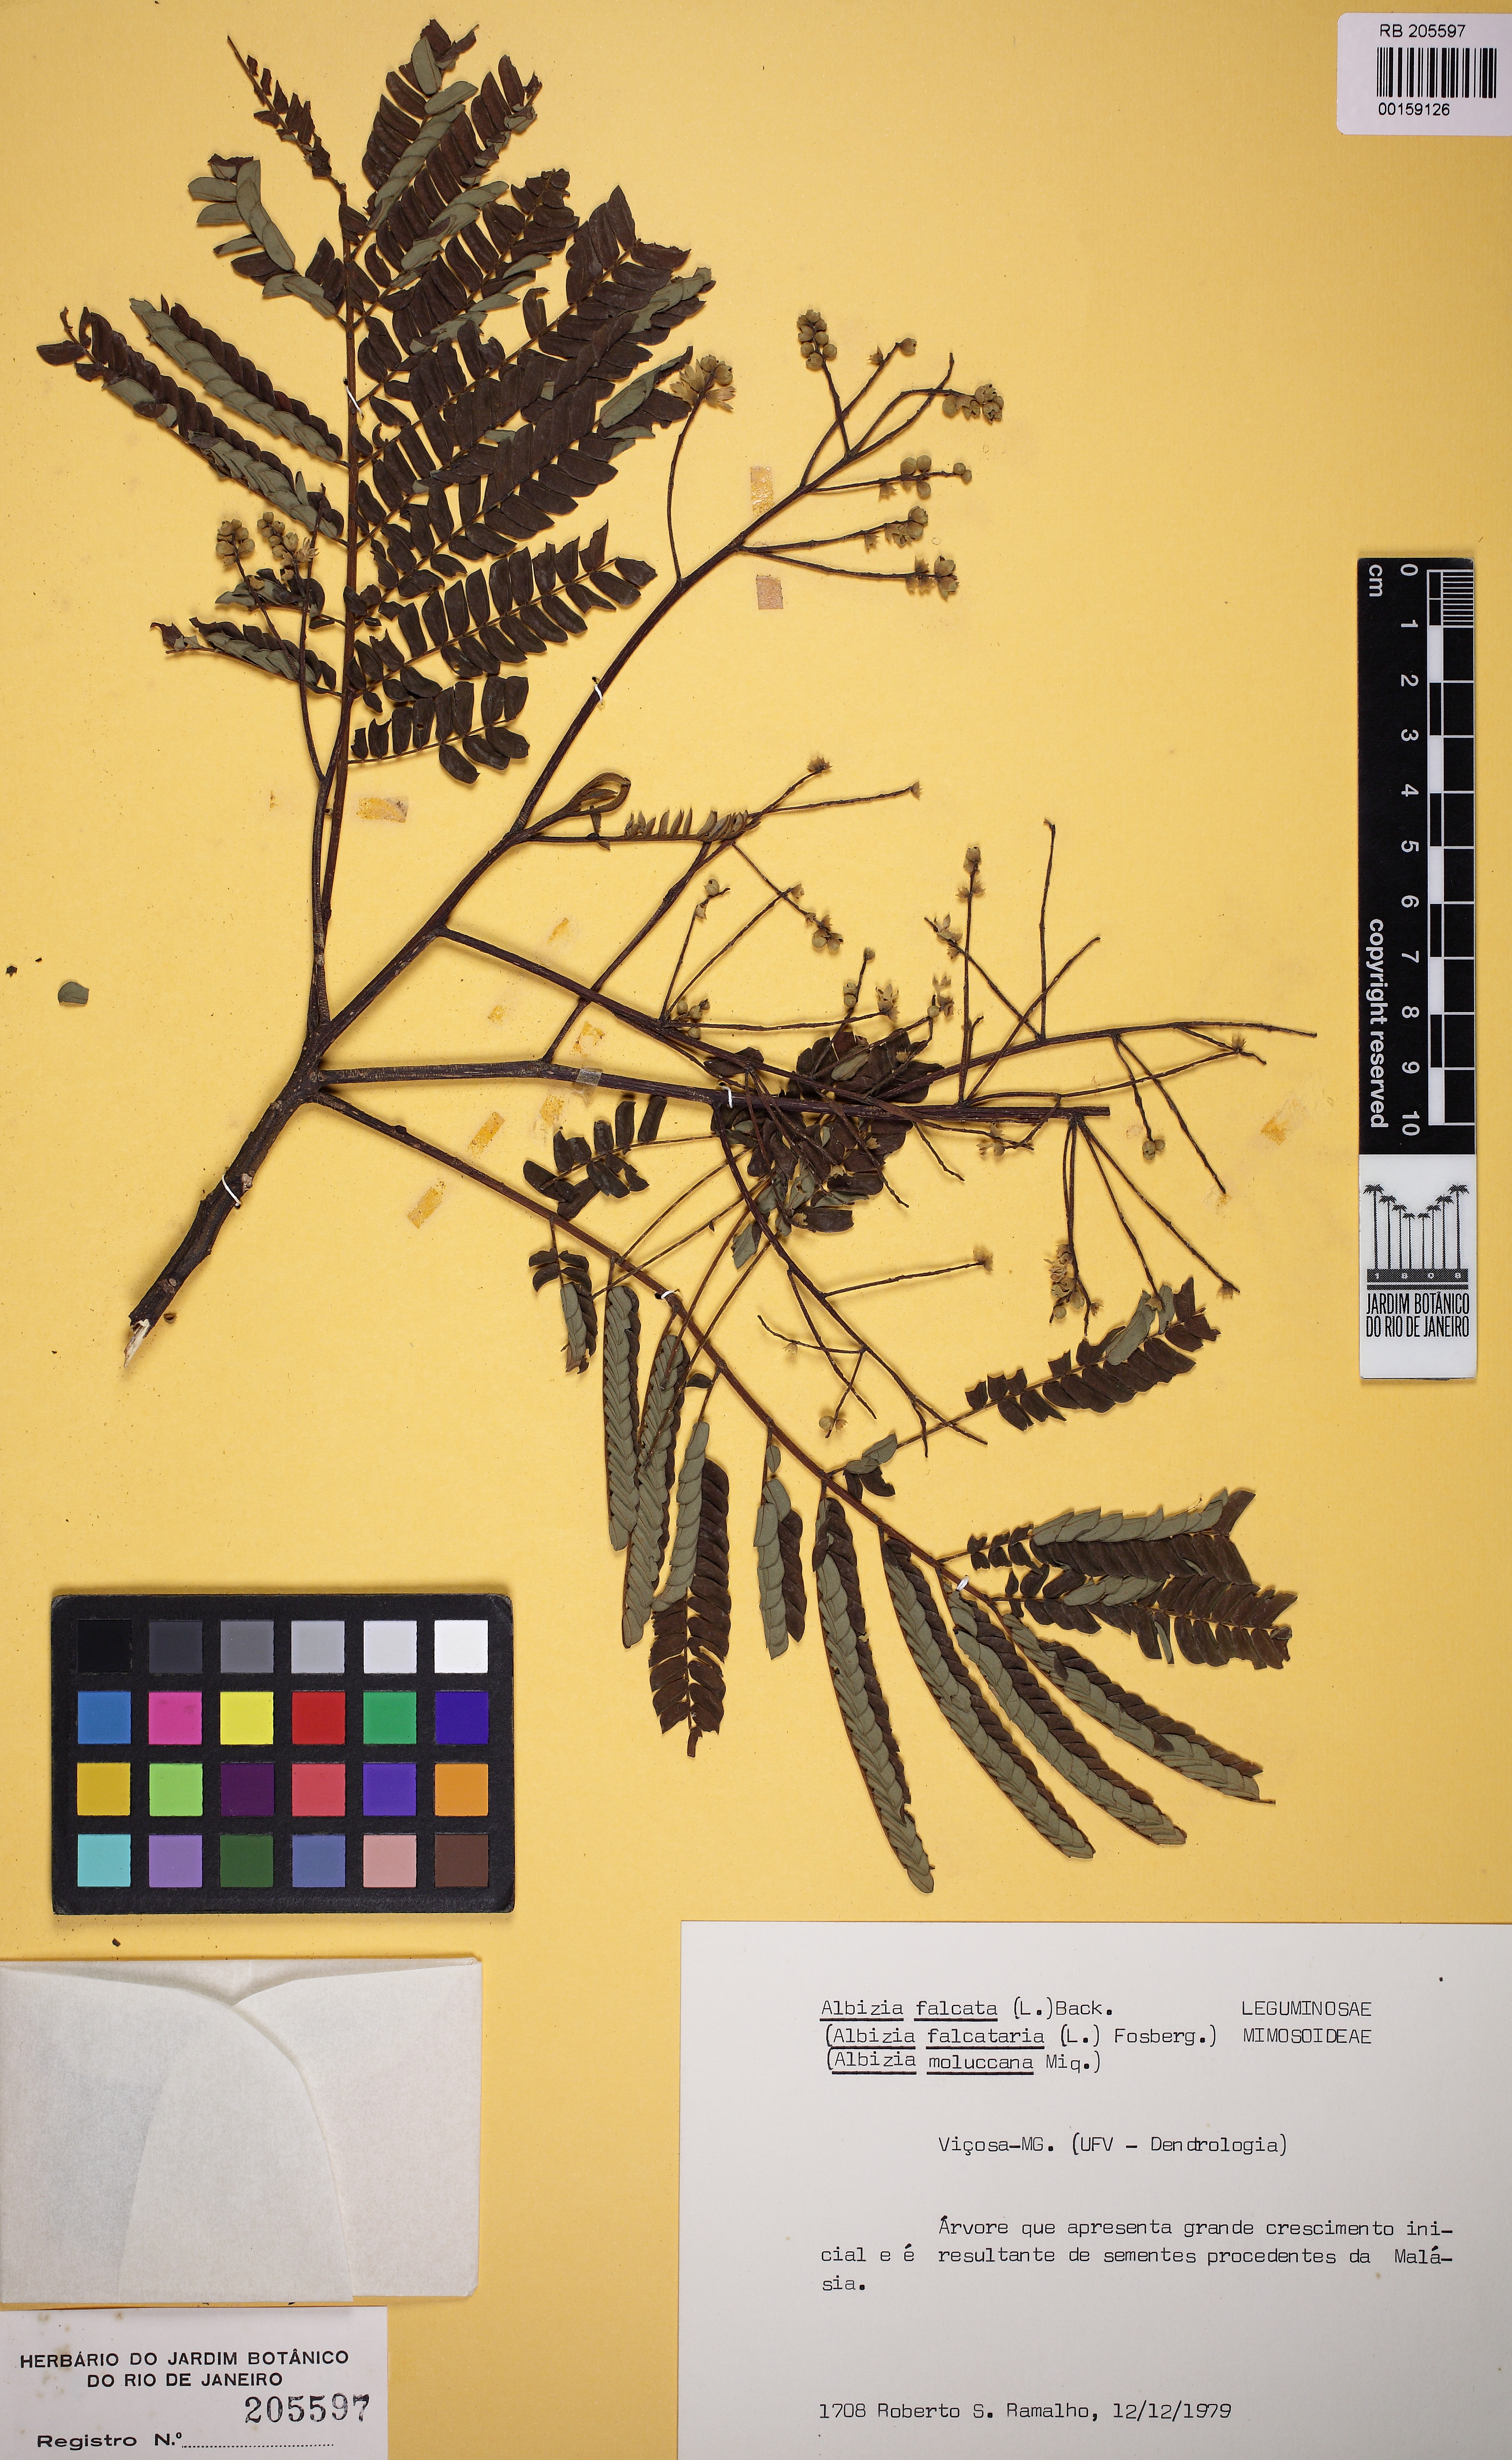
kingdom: Plantae
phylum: Tracheophyta
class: Magnoliopsida
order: Fabales
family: Fabaceae
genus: Falcataria
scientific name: Falcataria falcata
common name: Moluccan albizia
